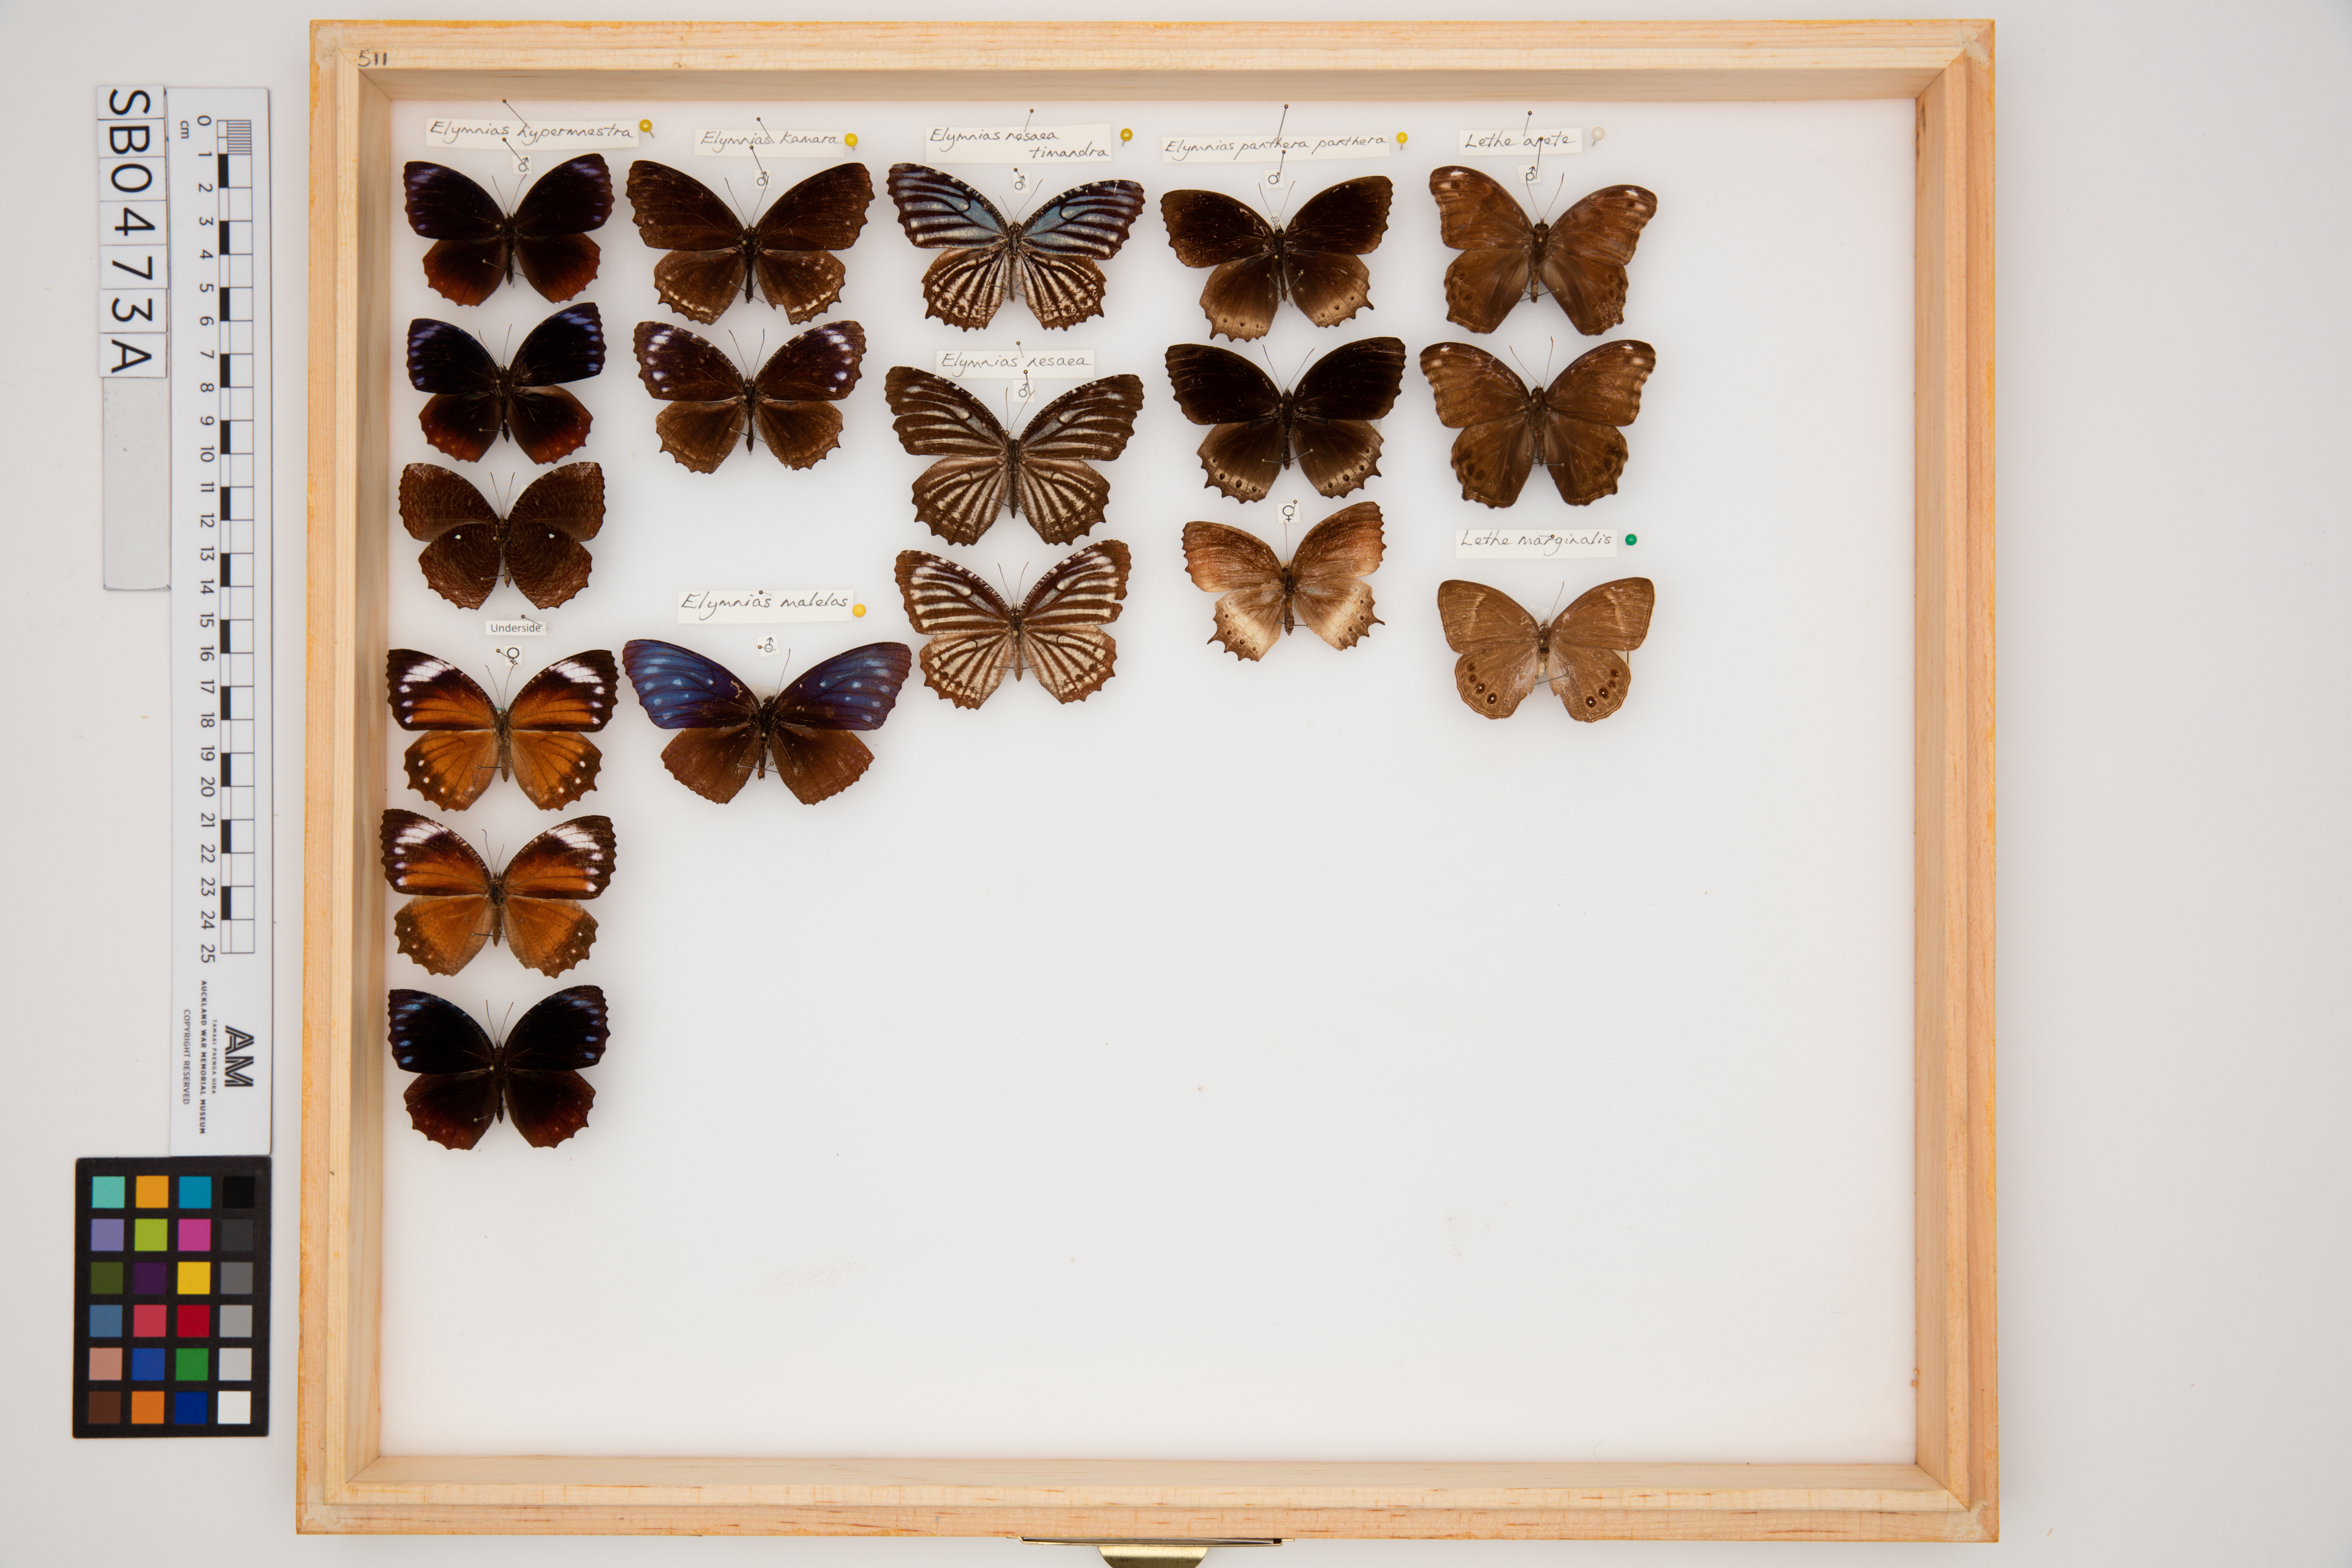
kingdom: Animalia
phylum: Arthropoda
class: Insecta
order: Lepidoptera
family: Nymphalidae
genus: Elymnias
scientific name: Elymnias hypermnestra
